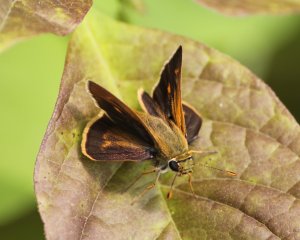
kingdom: Animalia
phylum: Arthropoda
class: Insecta
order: Lepidoptera
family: Hesperiidae
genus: Wallengrenia
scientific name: Wallengrenia otho
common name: Southern Broken-Dash
